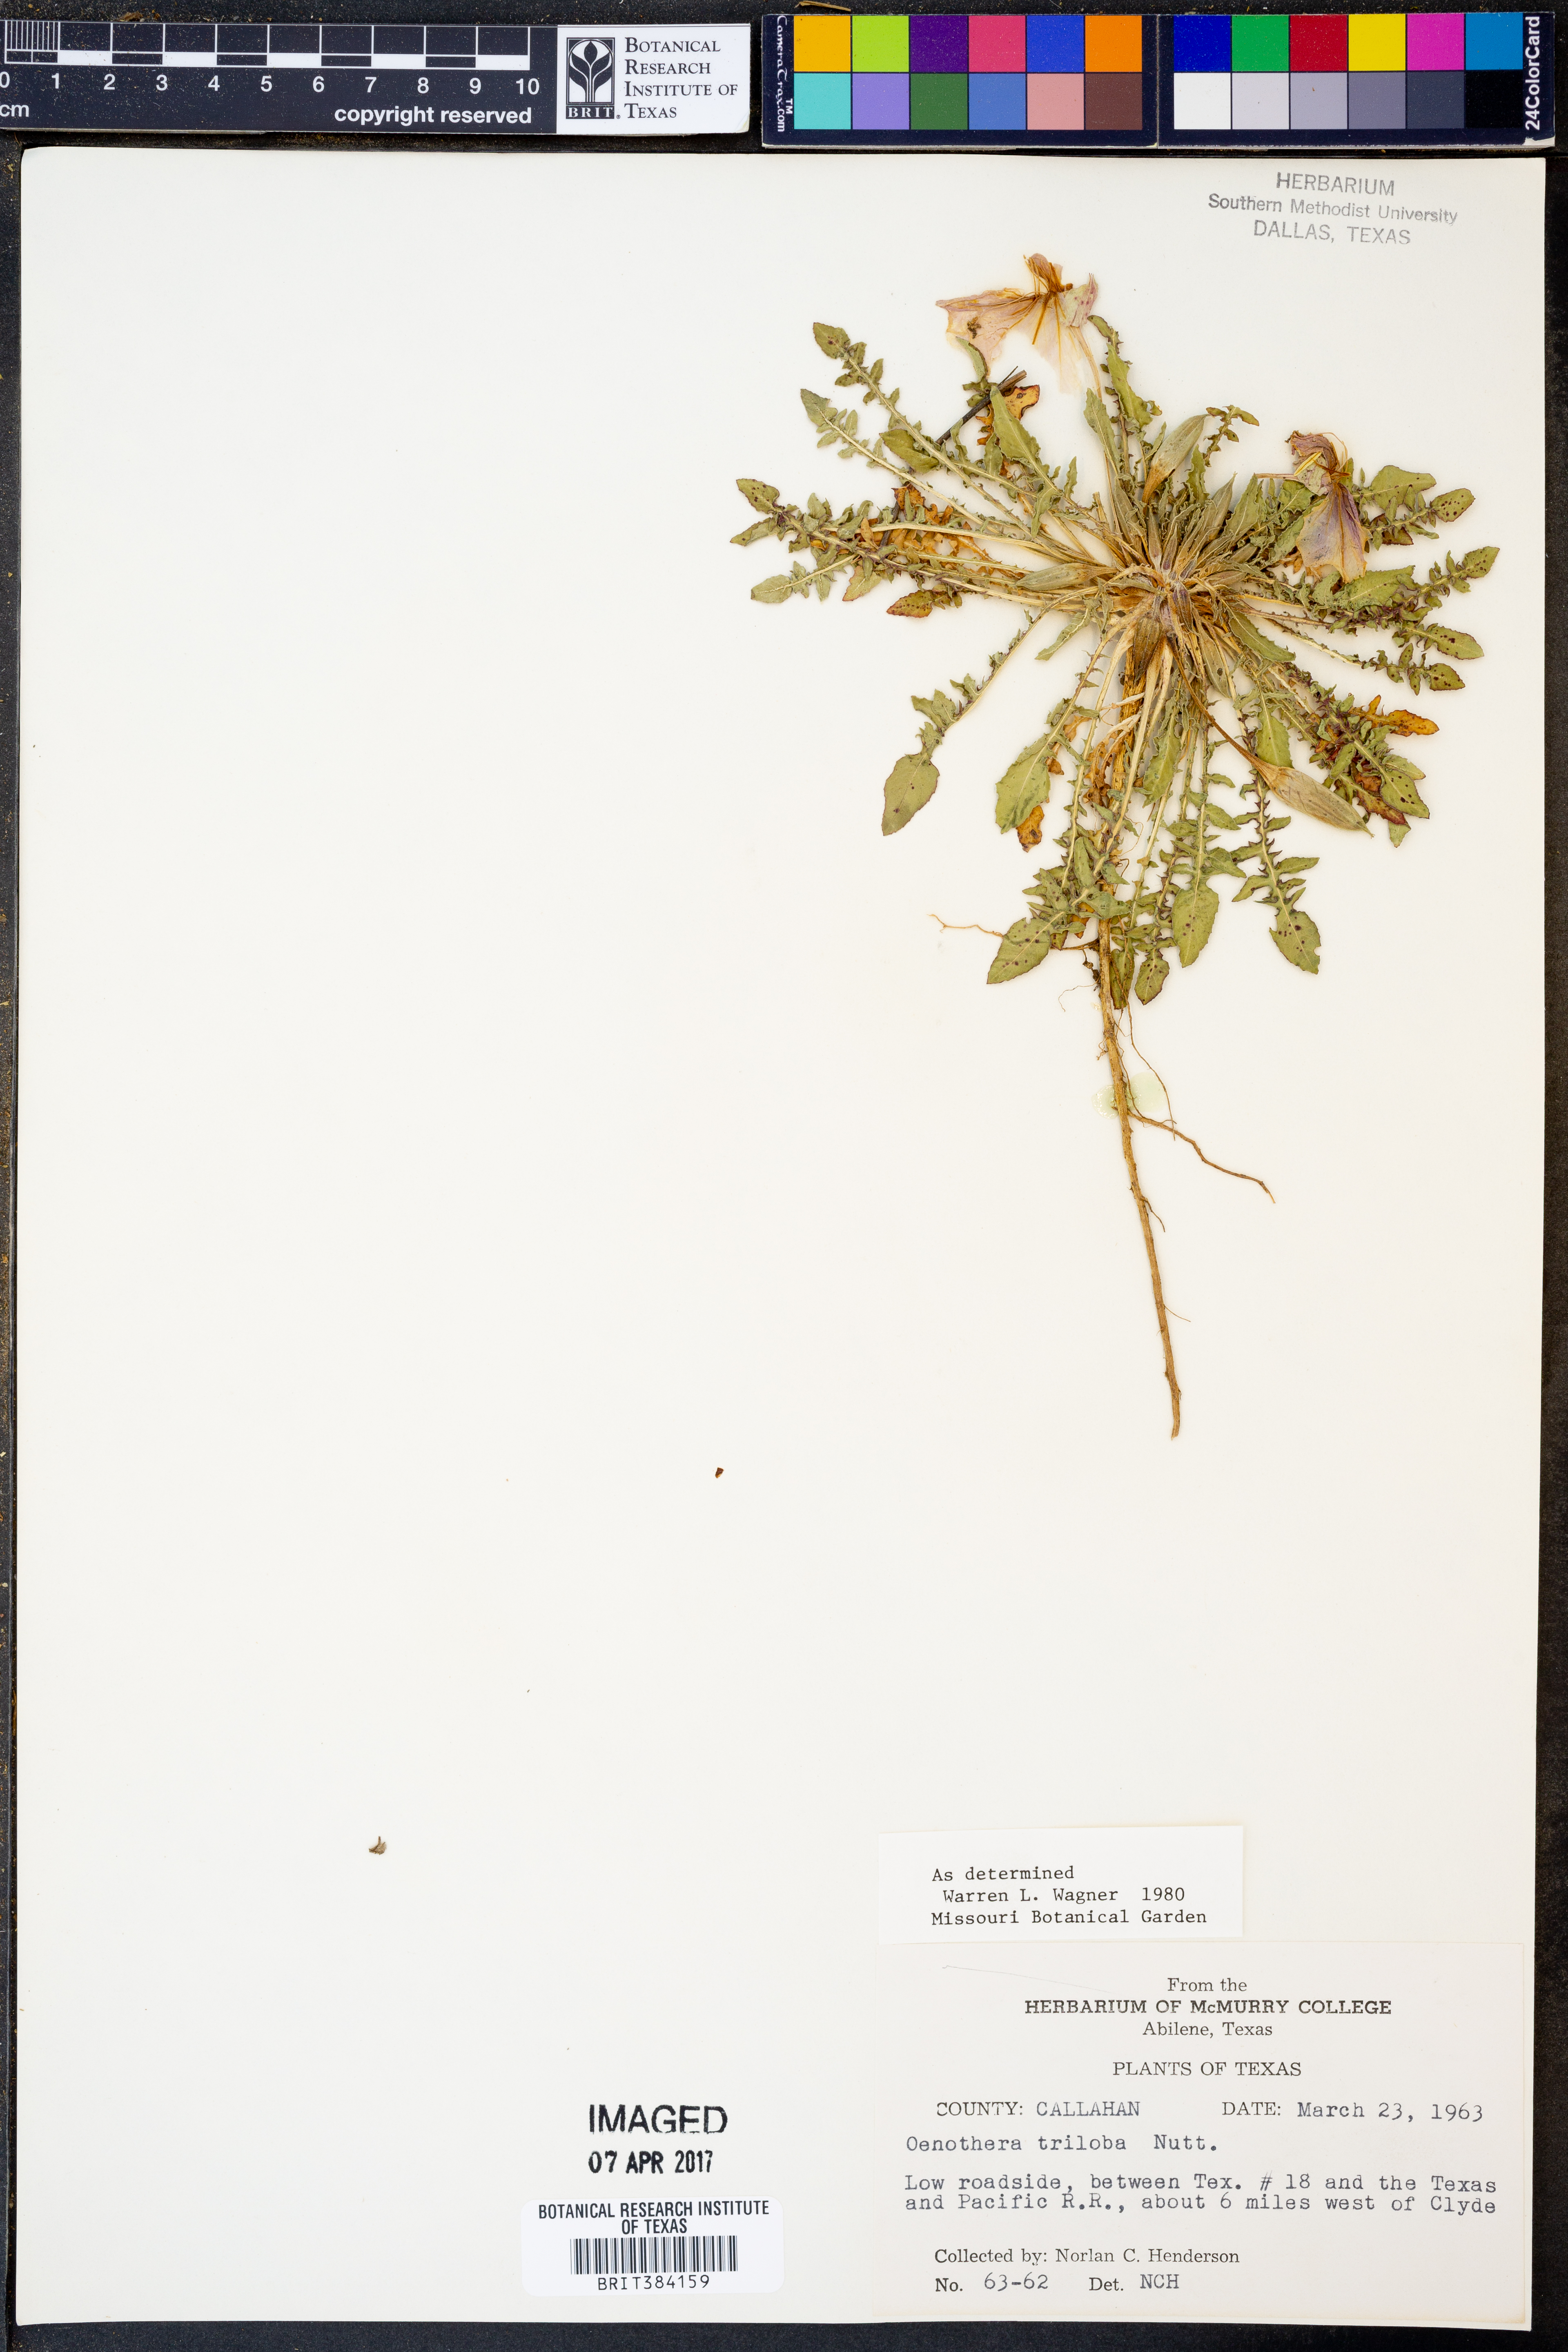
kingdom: Plantae
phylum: Tracheophyta
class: Magnoliopsida
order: Myrtales
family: Onagraceae
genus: Oenothera
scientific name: Oenothera triloba
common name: Sessile evening-primrose
